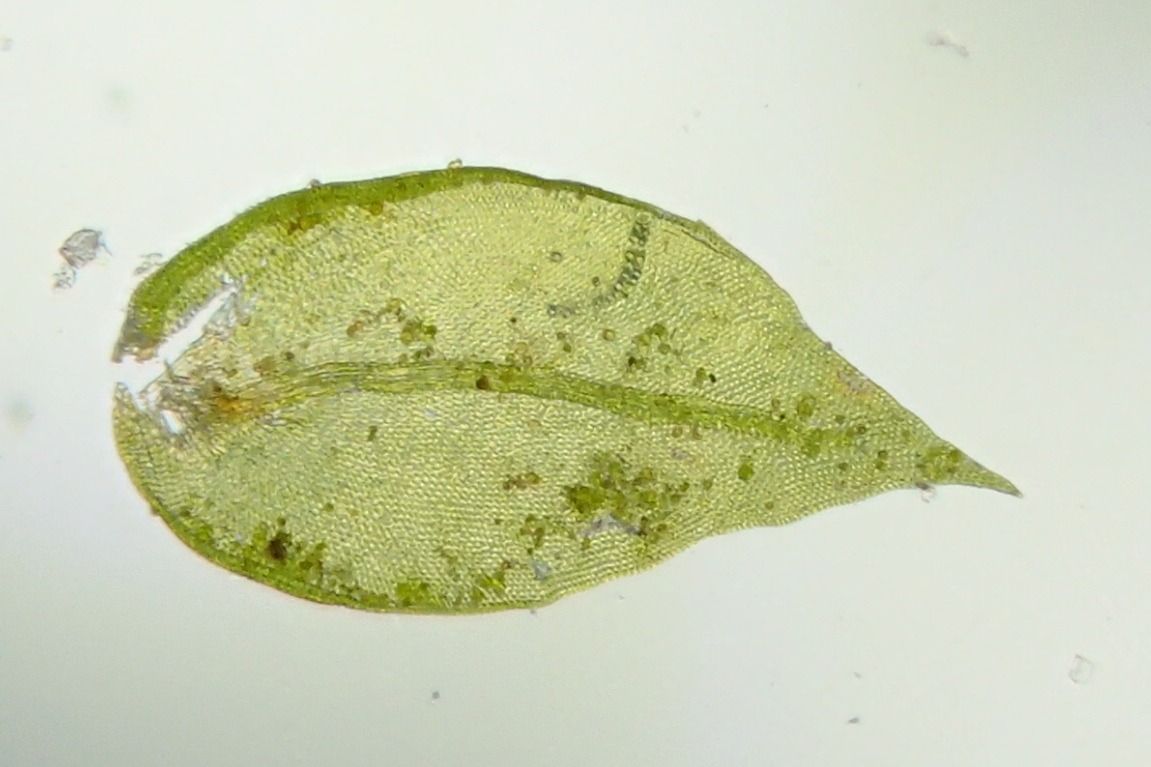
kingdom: Plantae
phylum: Bryophyta
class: Bryopsida
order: Hypnales
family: Cryphaeaceae
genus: Cryphaea
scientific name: Cryphaea heteromalla
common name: Bark-dækmos
